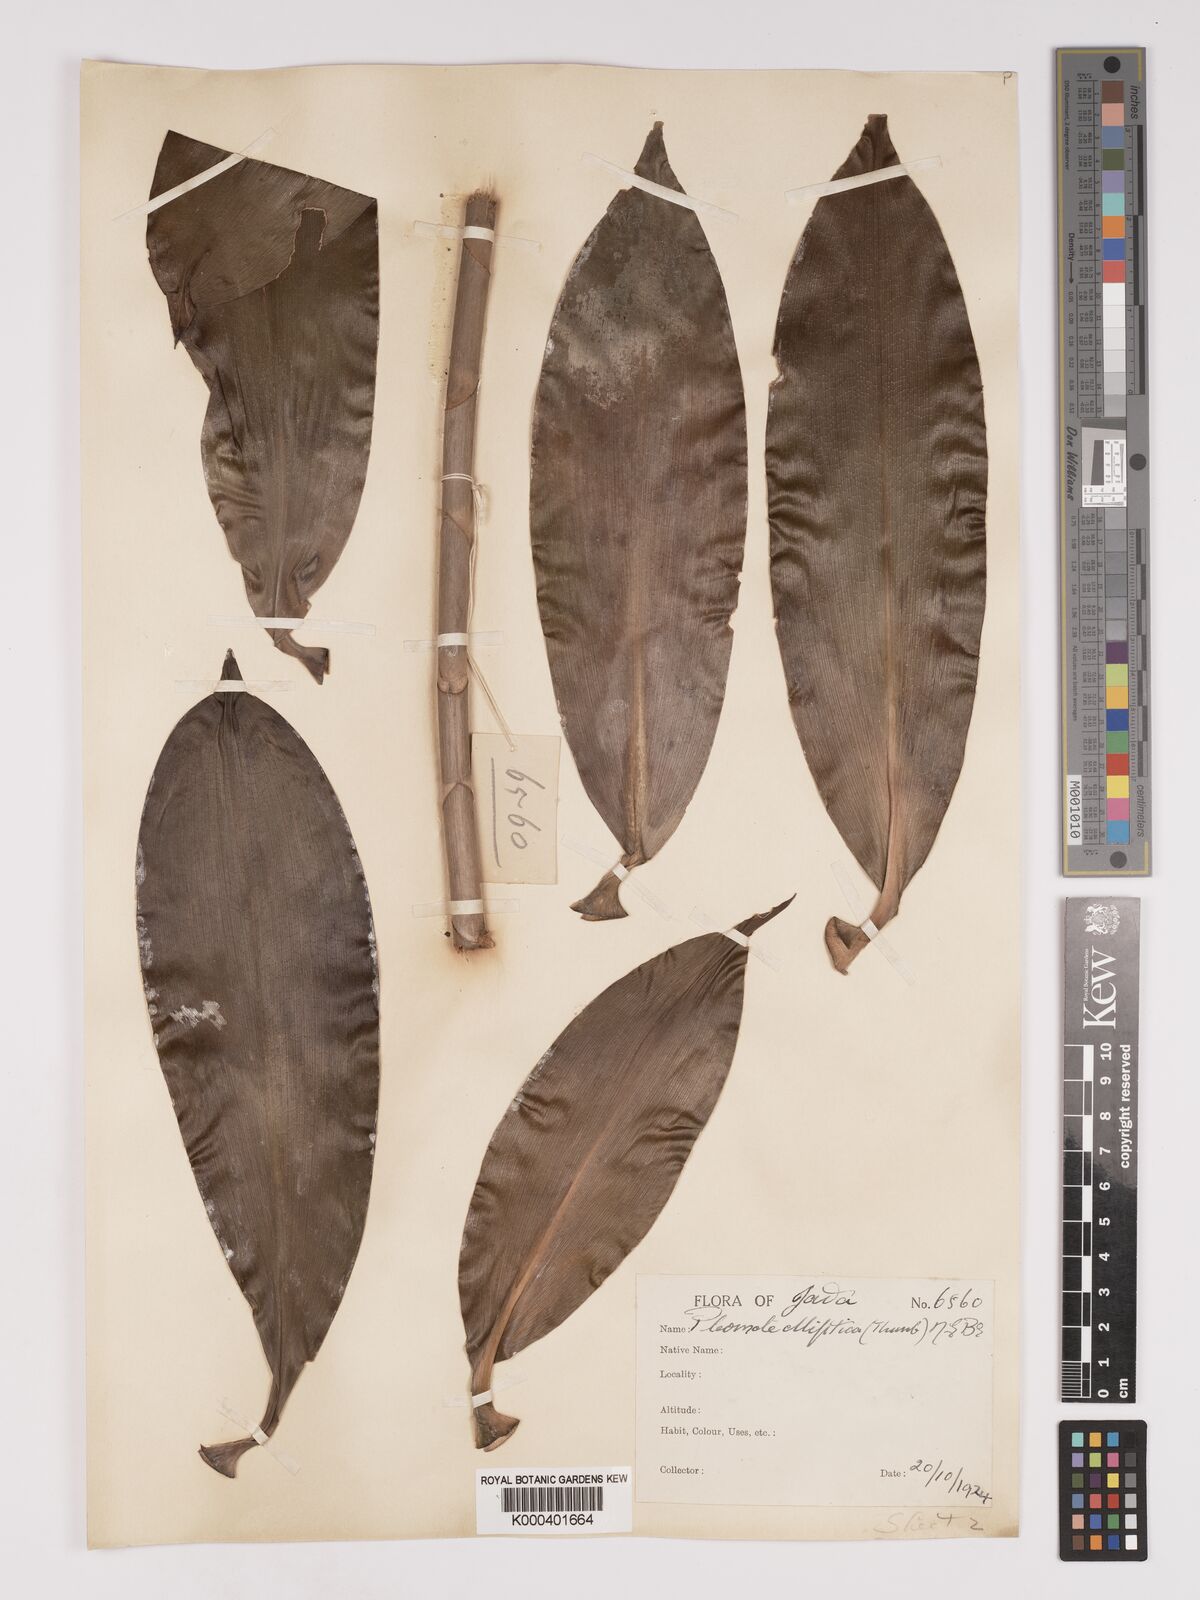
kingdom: Plantae
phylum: Tracheophyta
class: Liliopsida
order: Asparagales
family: Asparagaceae
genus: Dracaena
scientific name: Dracaena elliptica
